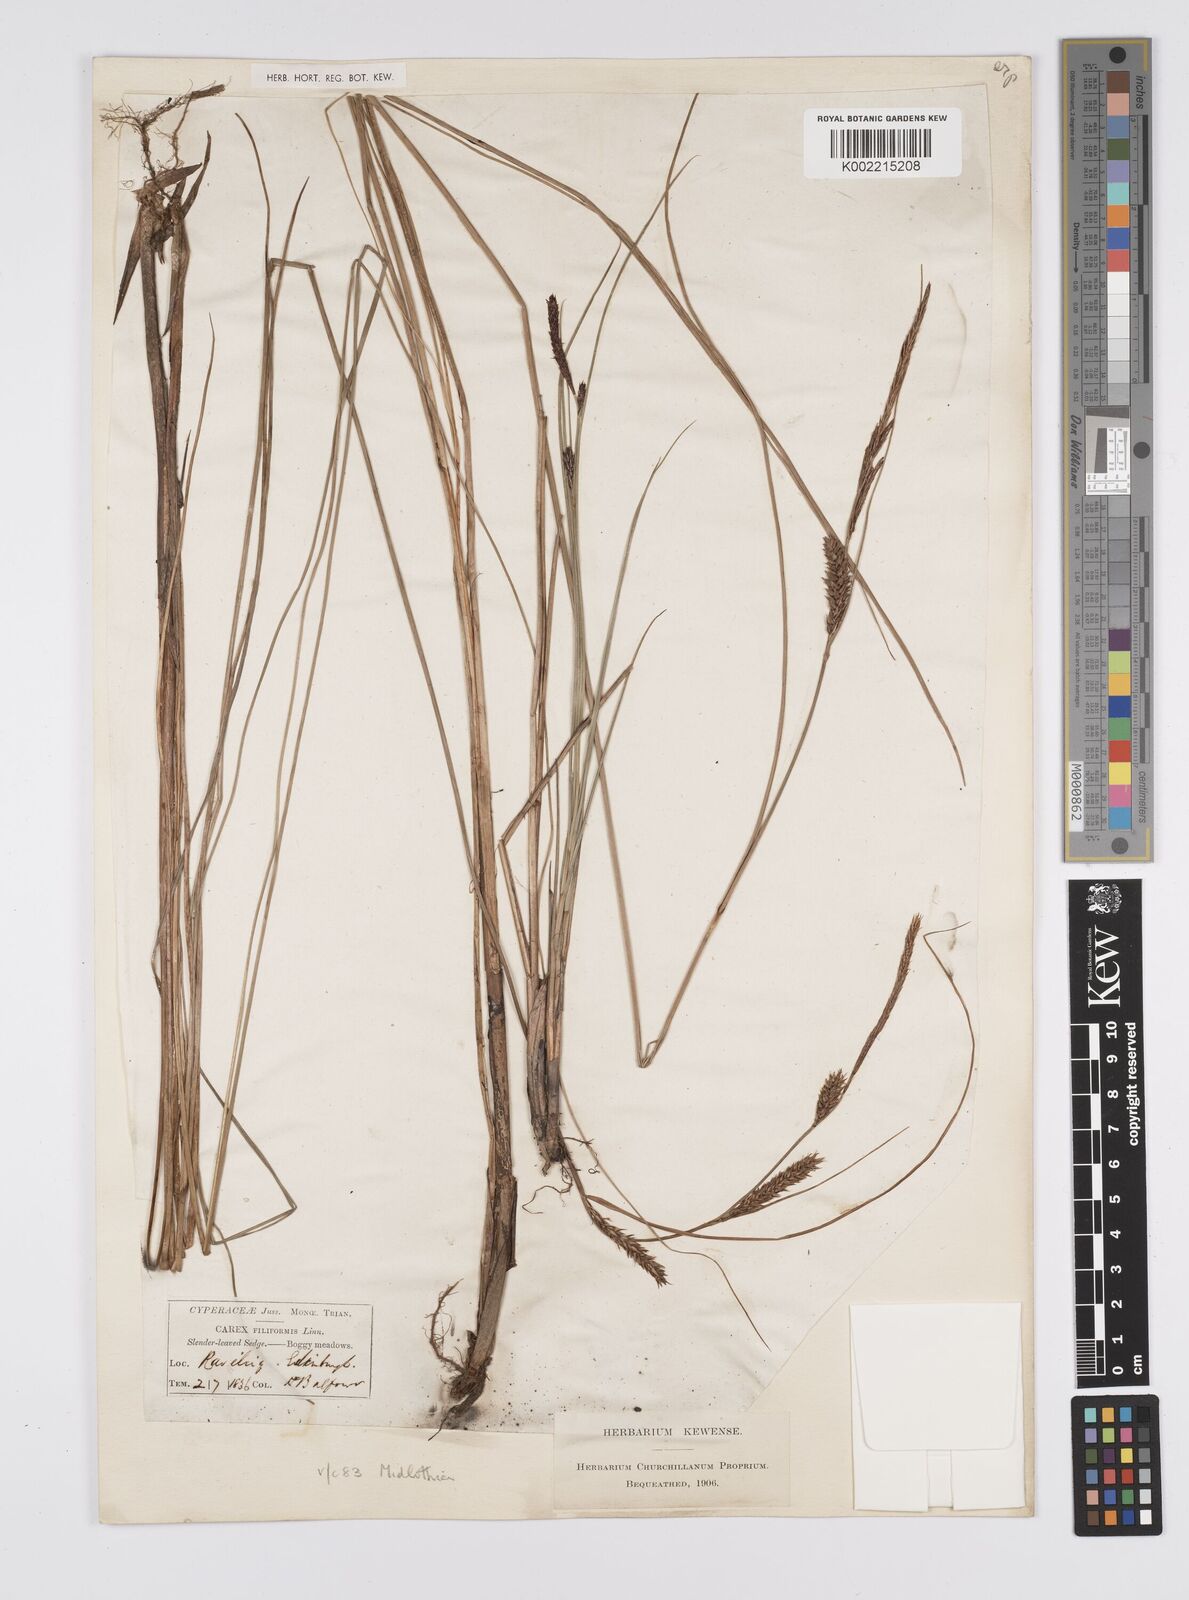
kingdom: Plantae
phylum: Tracheophyta
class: Liliopsida
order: Poales
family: Cyperaceae
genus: Carex
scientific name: Carex lasiocarpa
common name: Slender sedge
